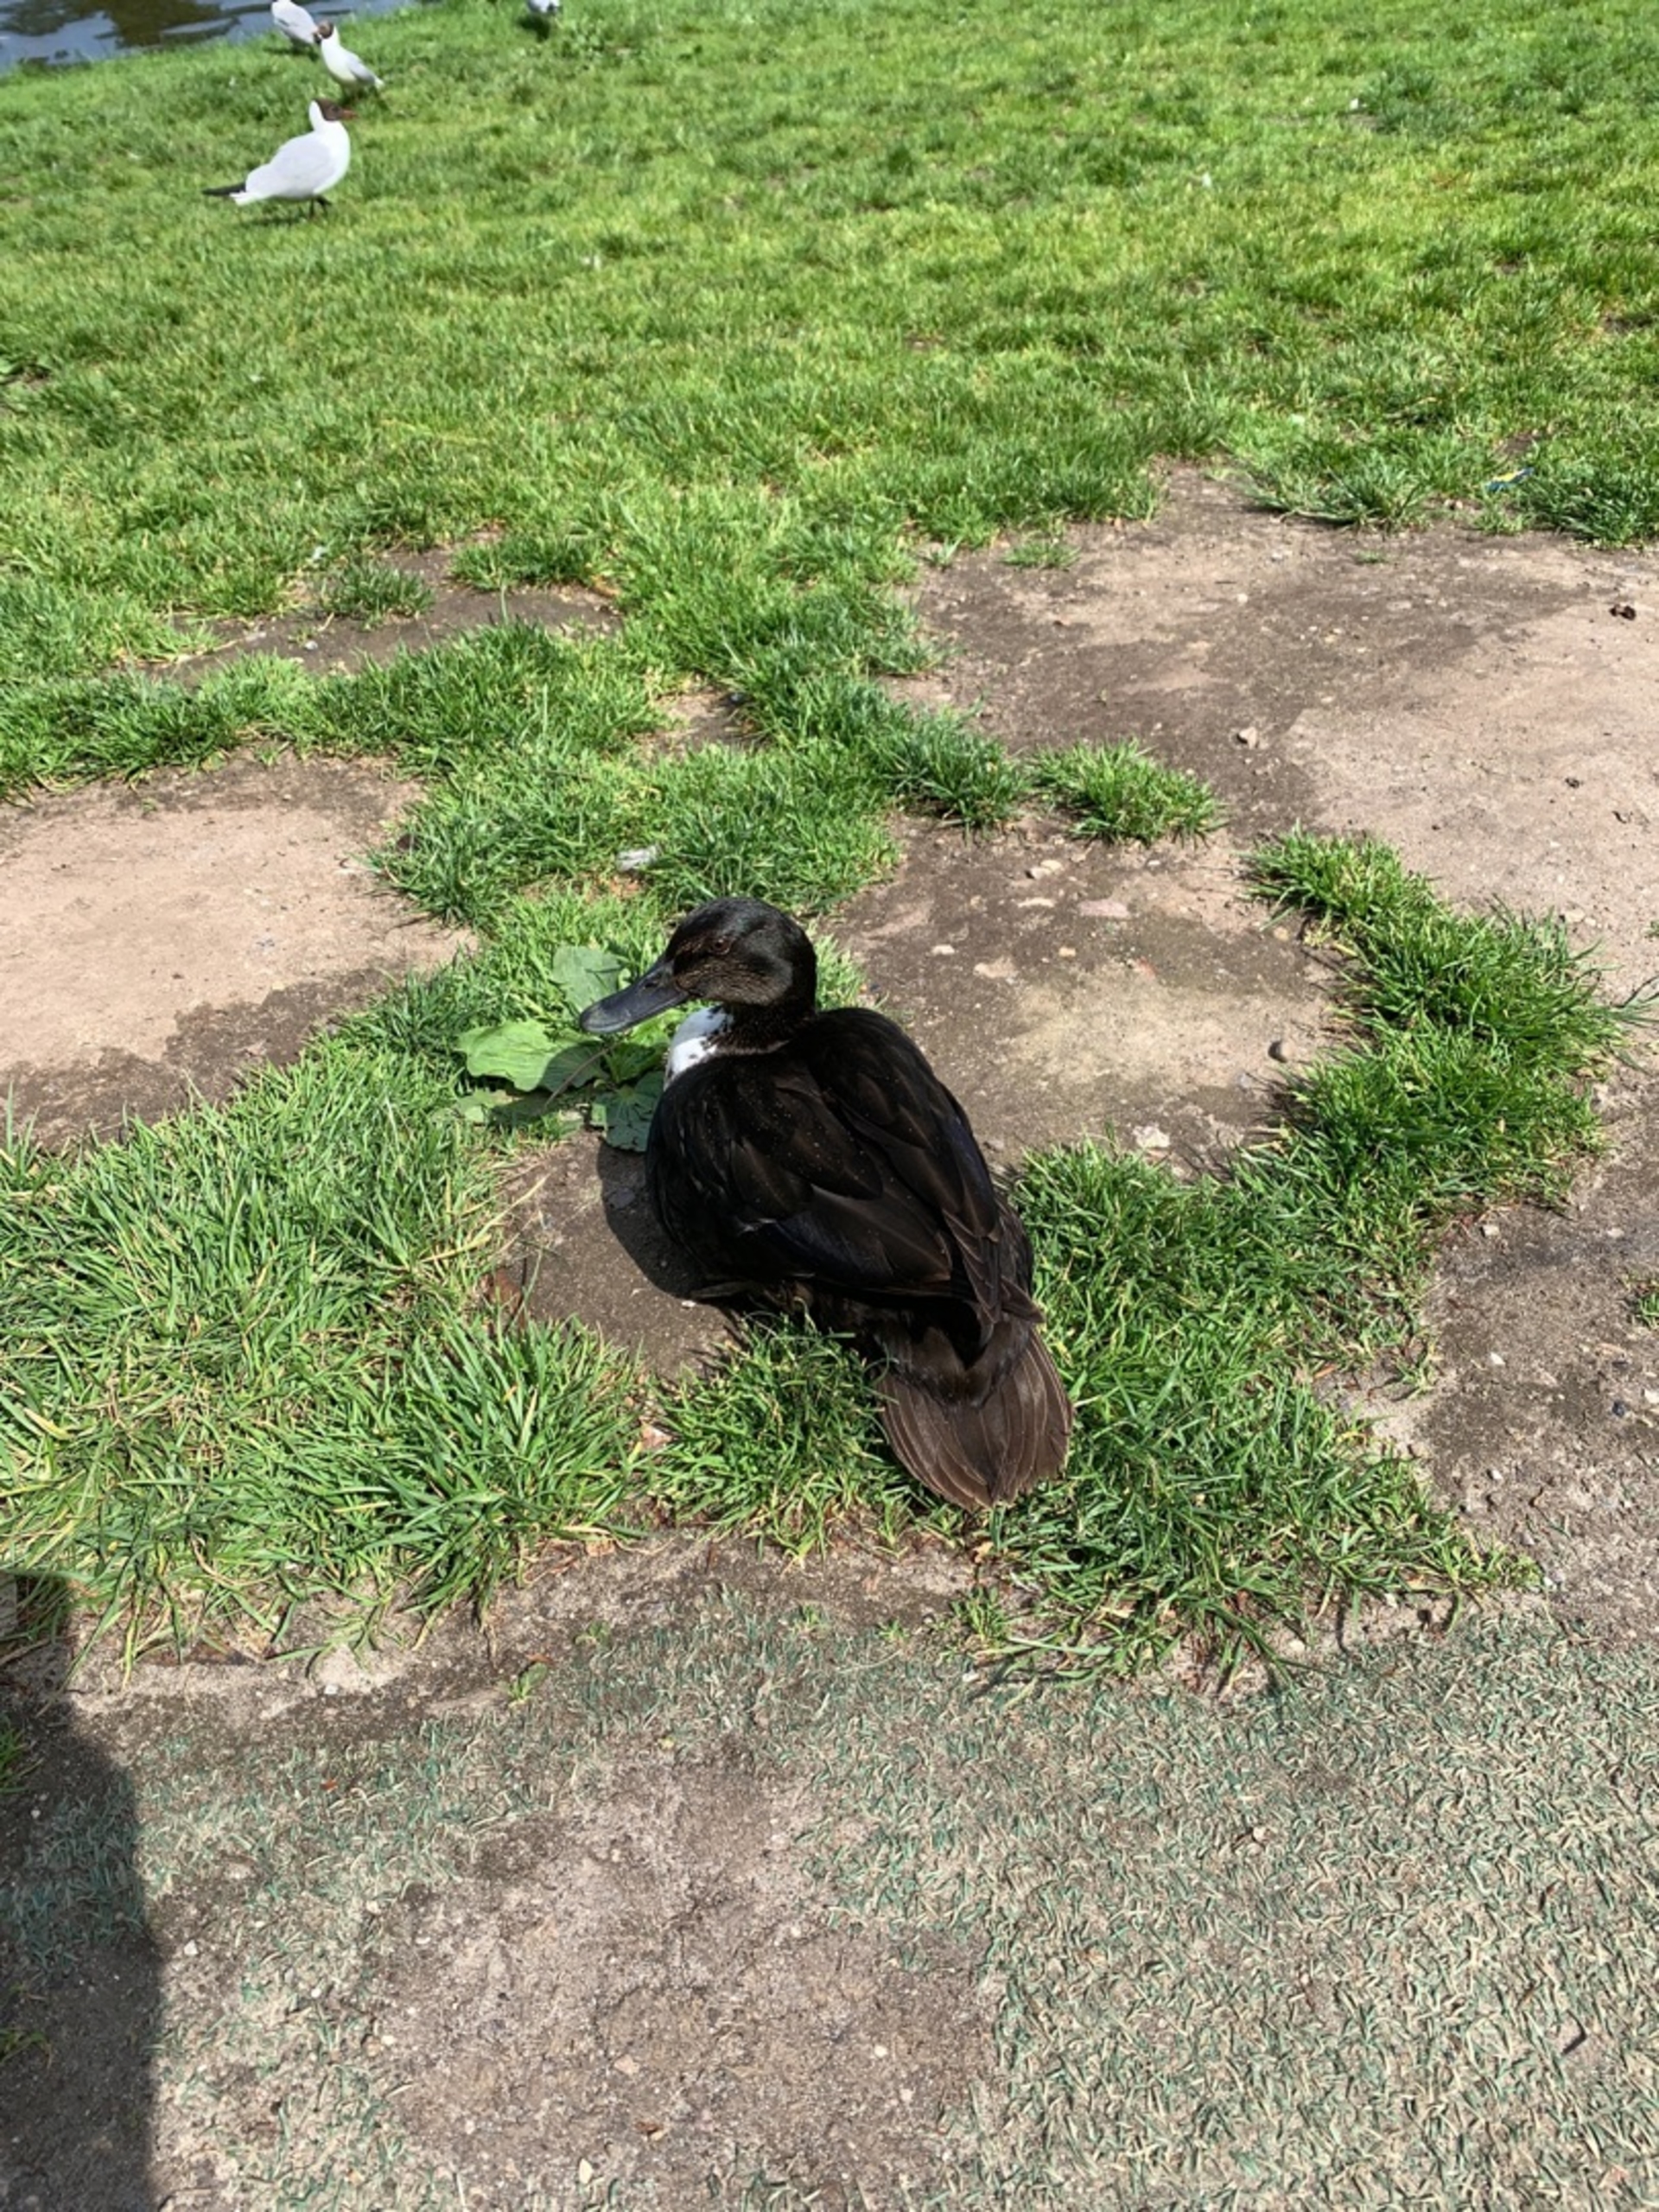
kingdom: Animalia
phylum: Chordata
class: Aves
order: Anseriformes
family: Anatidae
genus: Anas
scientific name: Anas platyrhynchos
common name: Gråand
